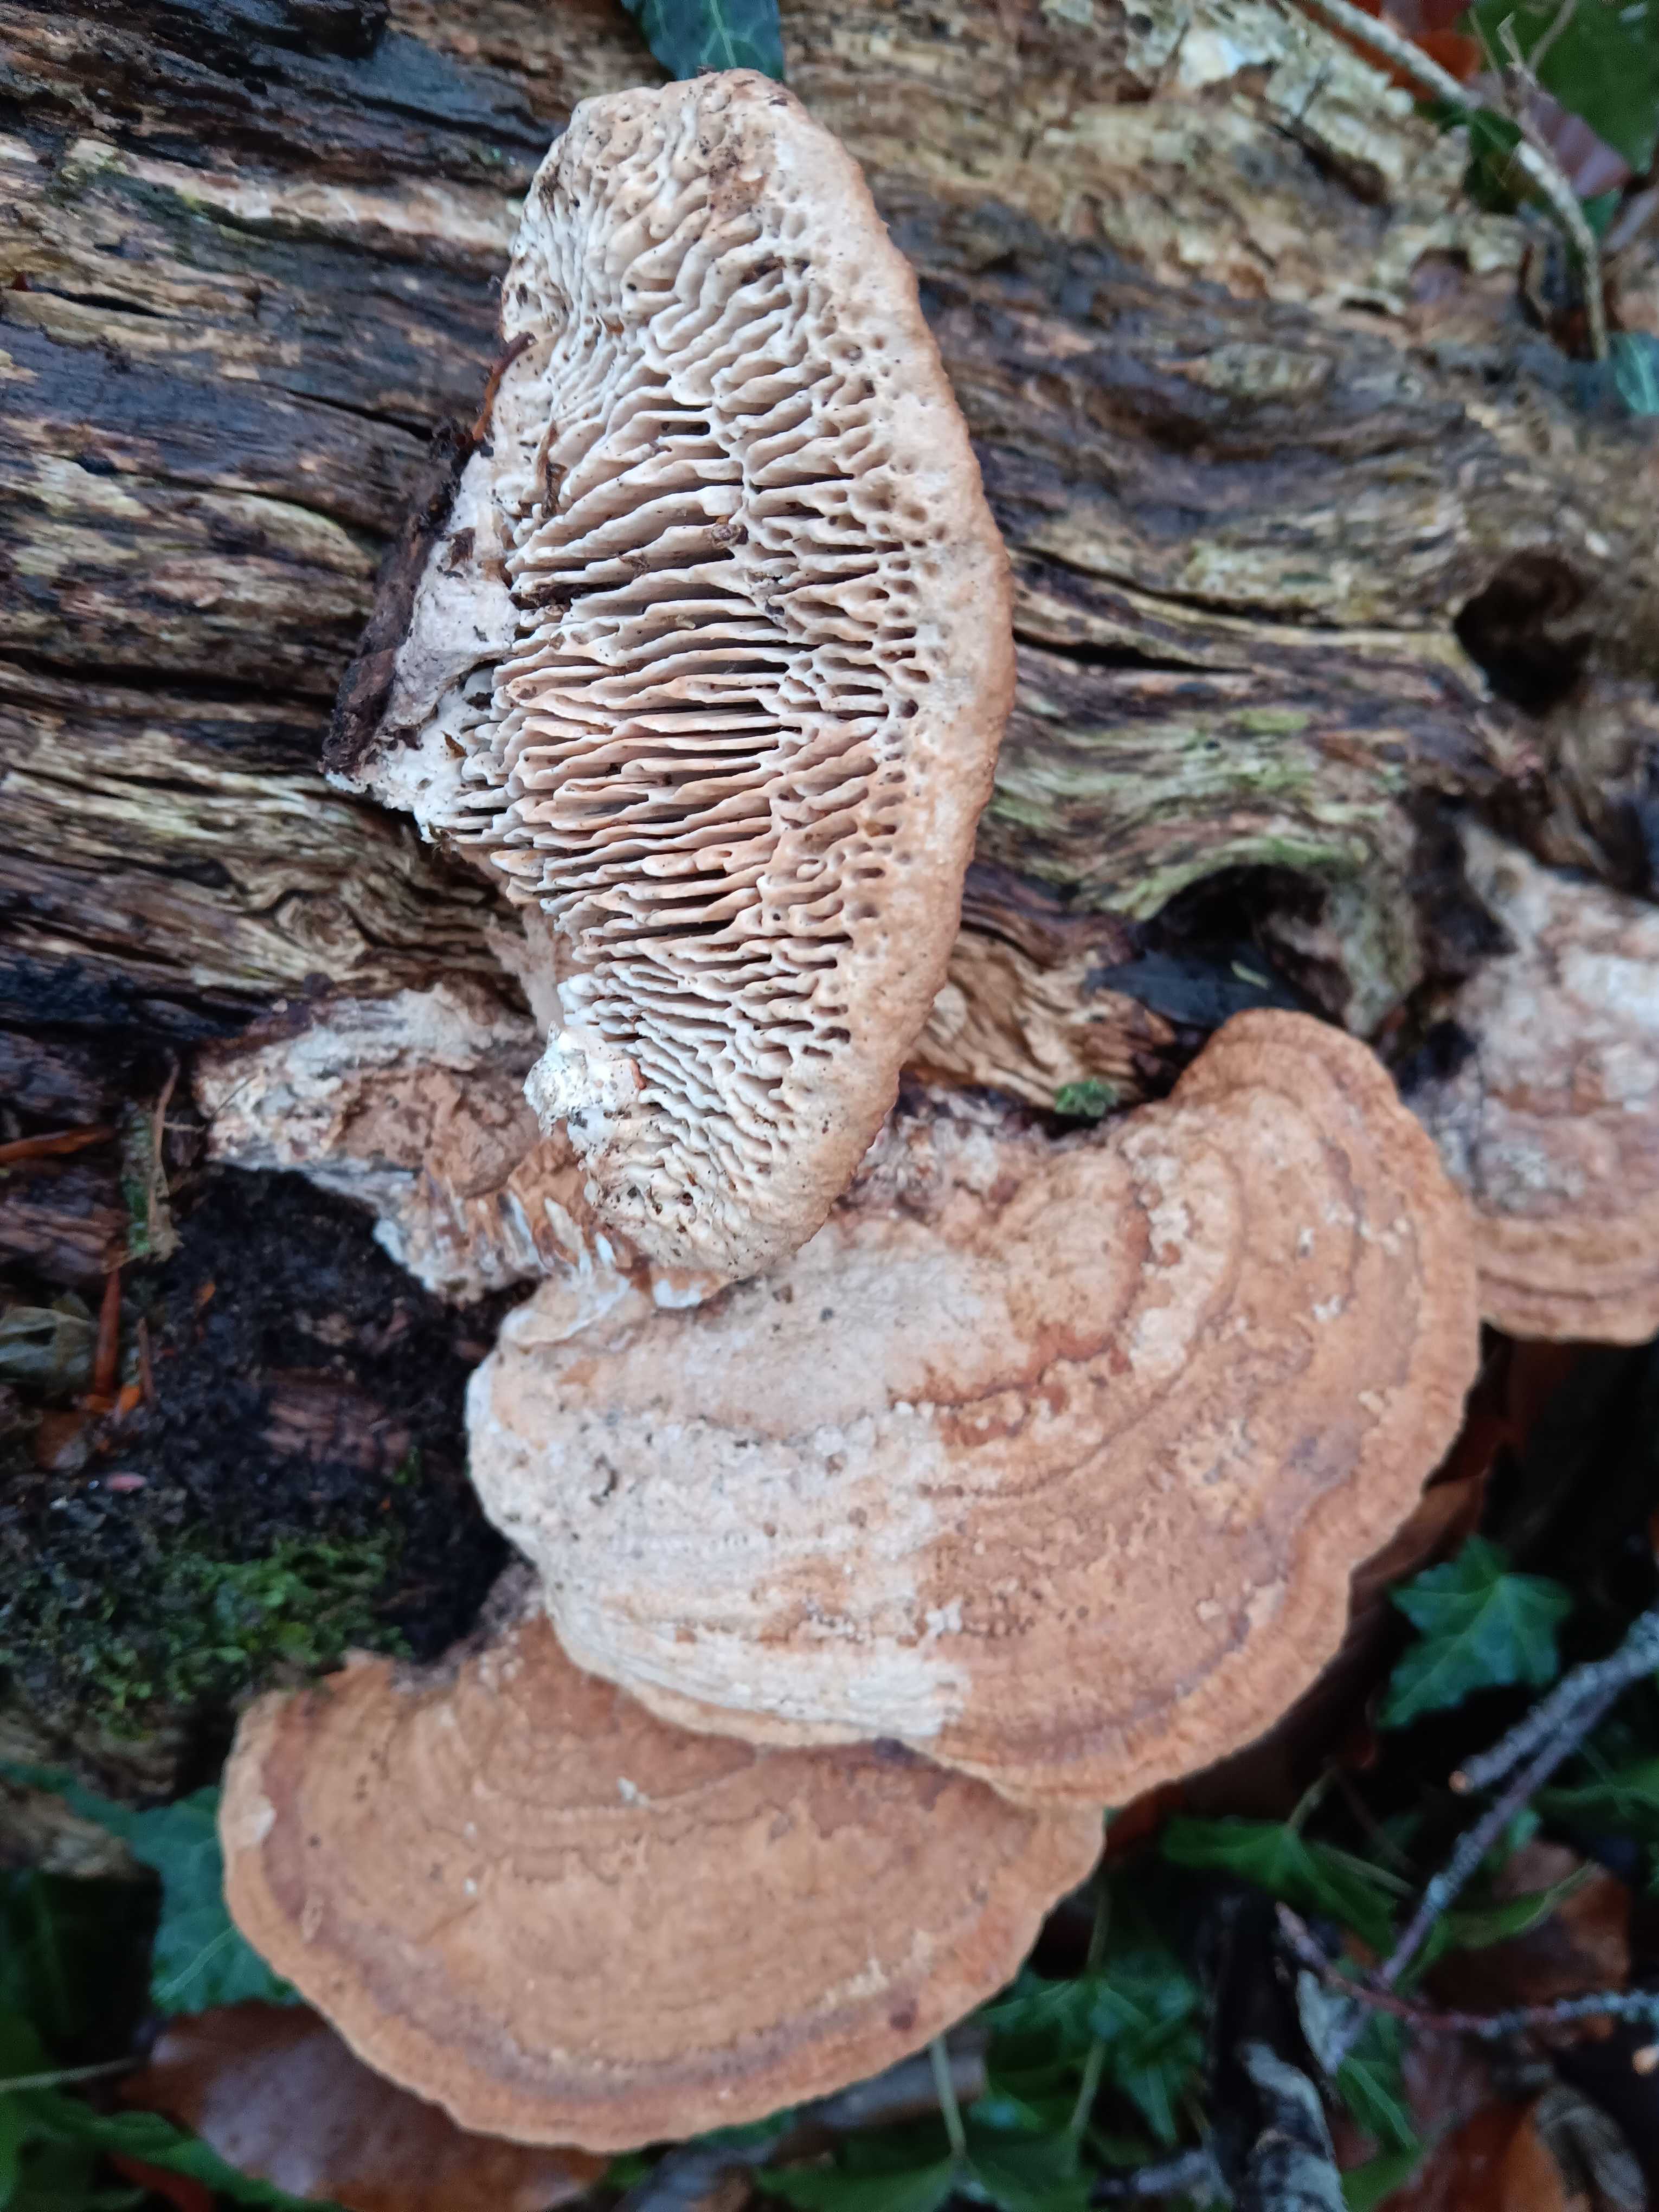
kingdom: Fungi
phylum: Basidiomycota
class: Agaricomycetes
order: Polyporales
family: Fomitopsidaceae
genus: Daedalea
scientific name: Daedalea quercina
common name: ege-labyrintsvamp
